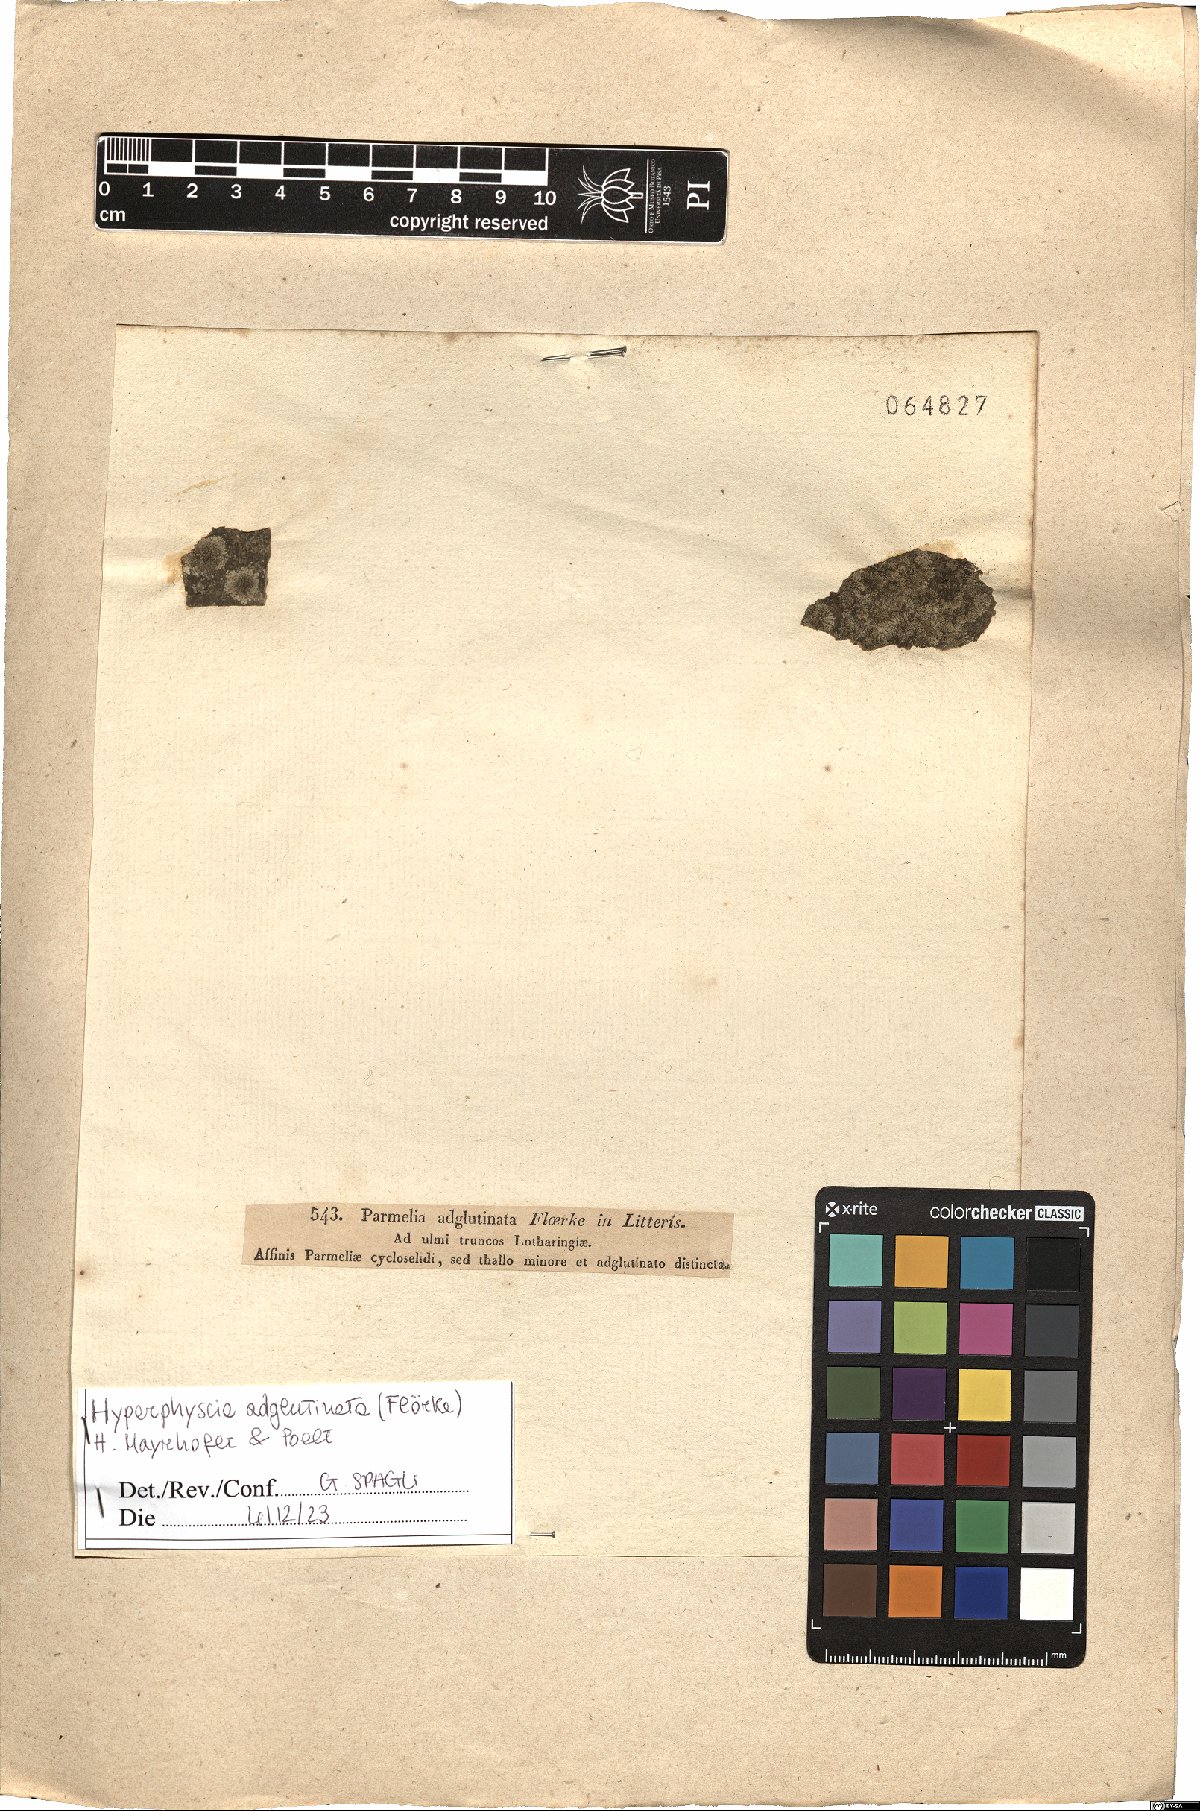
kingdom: Fungi
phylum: Ascomycota
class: Lecanoromycetes
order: Caliciales
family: Physciaceae
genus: Hyperphyscia
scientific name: Hyperphyscia adglutinata
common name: Grainy shadow-crust lichen
